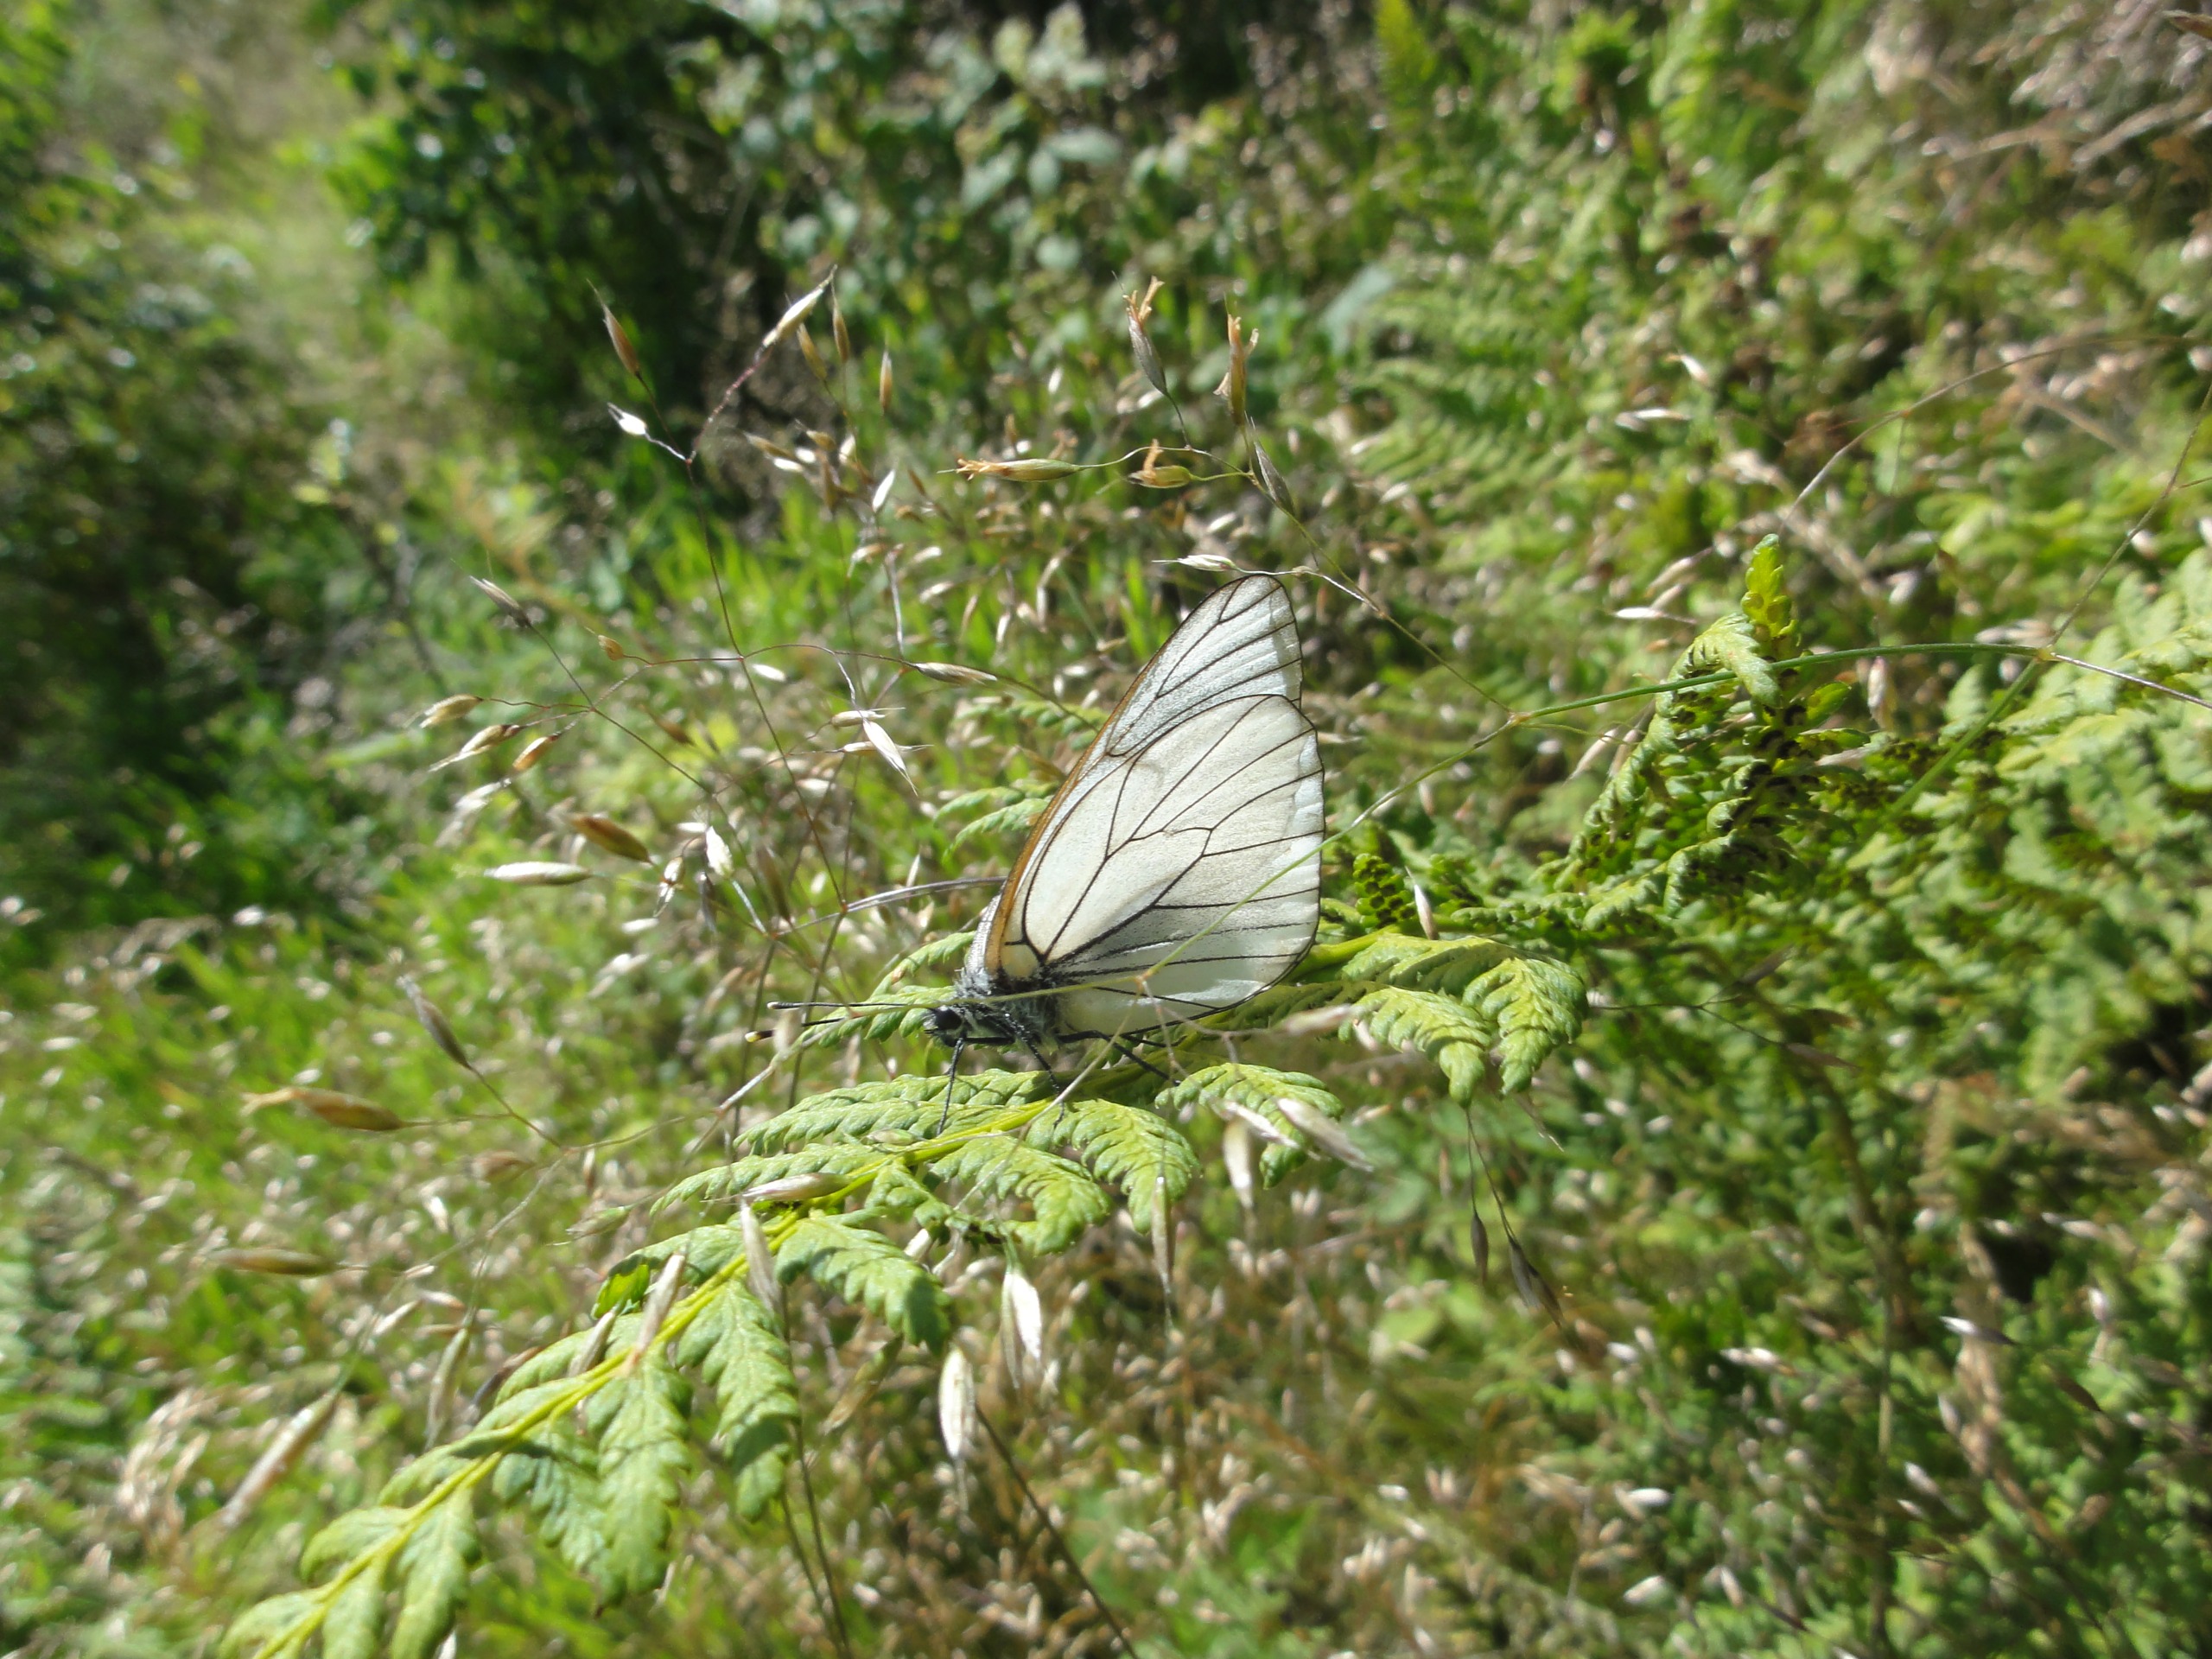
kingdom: Animalia
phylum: Arthropoda
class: Insecta
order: Lepidoptera
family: Pieridae
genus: Aporia
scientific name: Aporia crataegi
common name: Sortåret hvidvinge
